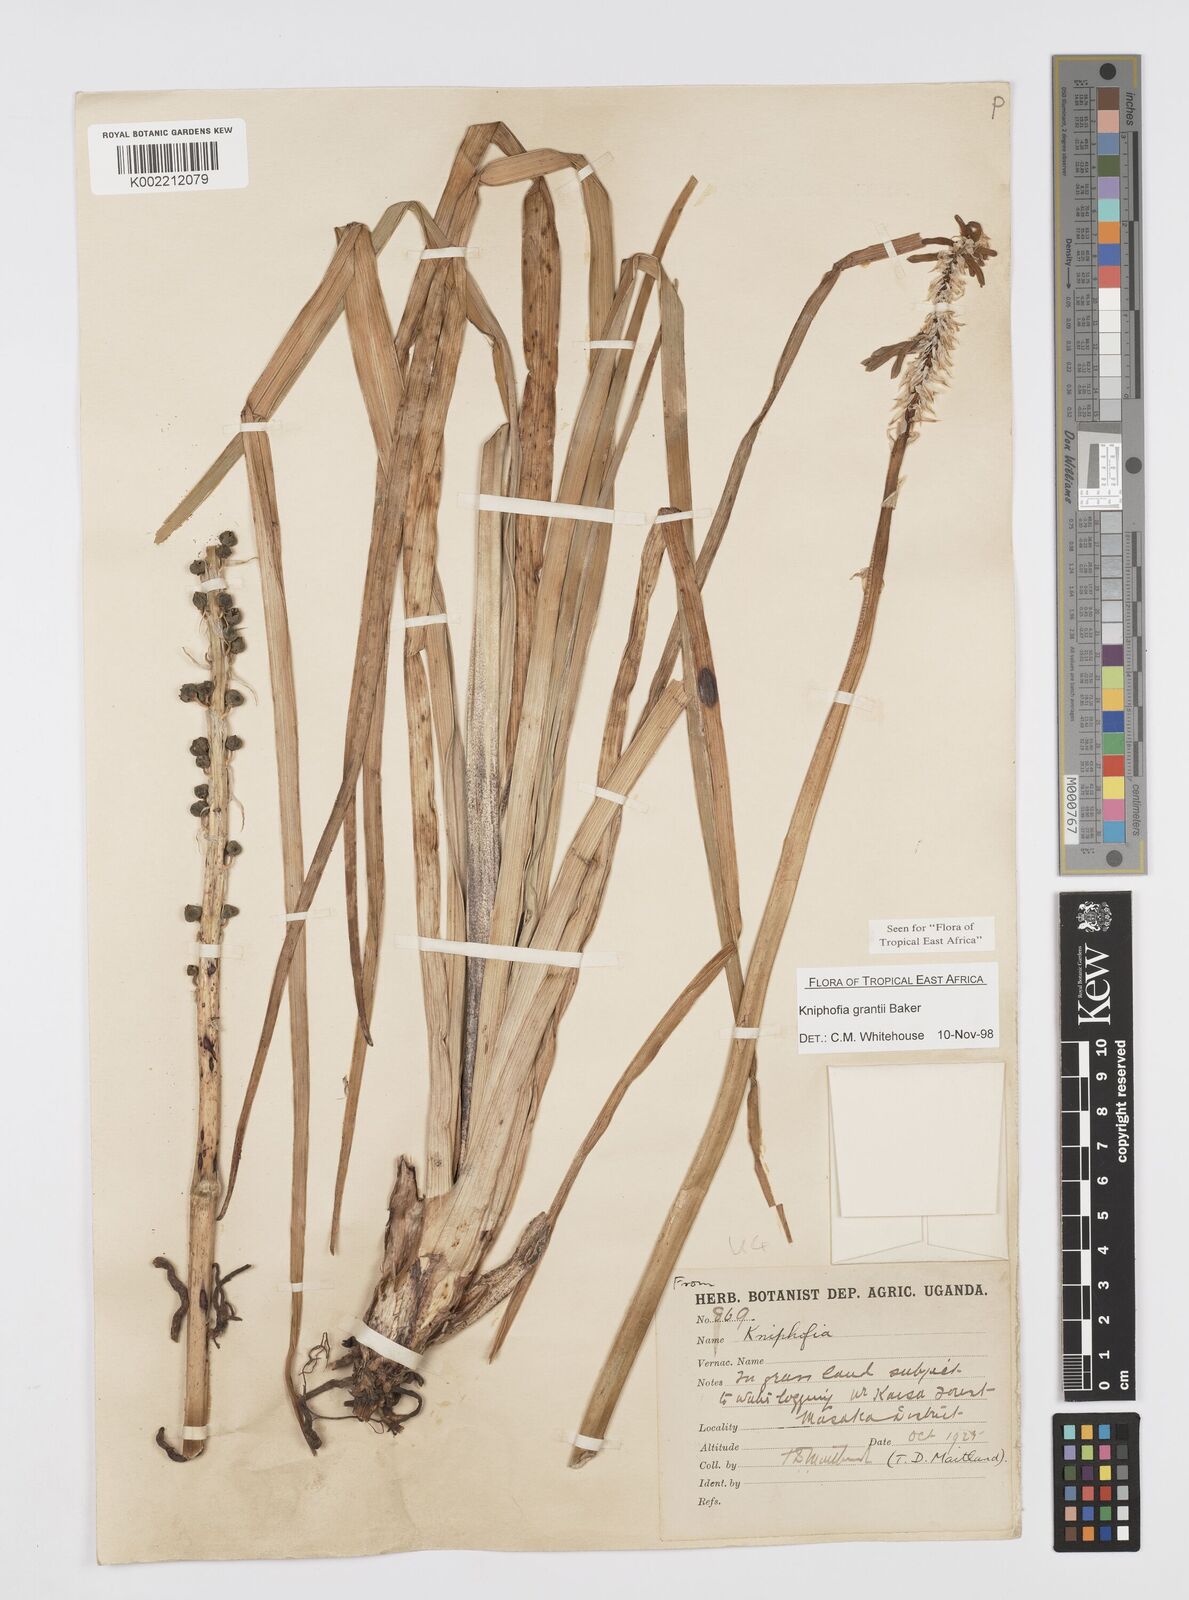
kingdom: Plantae
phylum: Tracheophyta
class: Liliopsida
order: Asparagales
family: Asphodelaceae
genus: Kniphofia
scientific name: Kniphofia grantii
